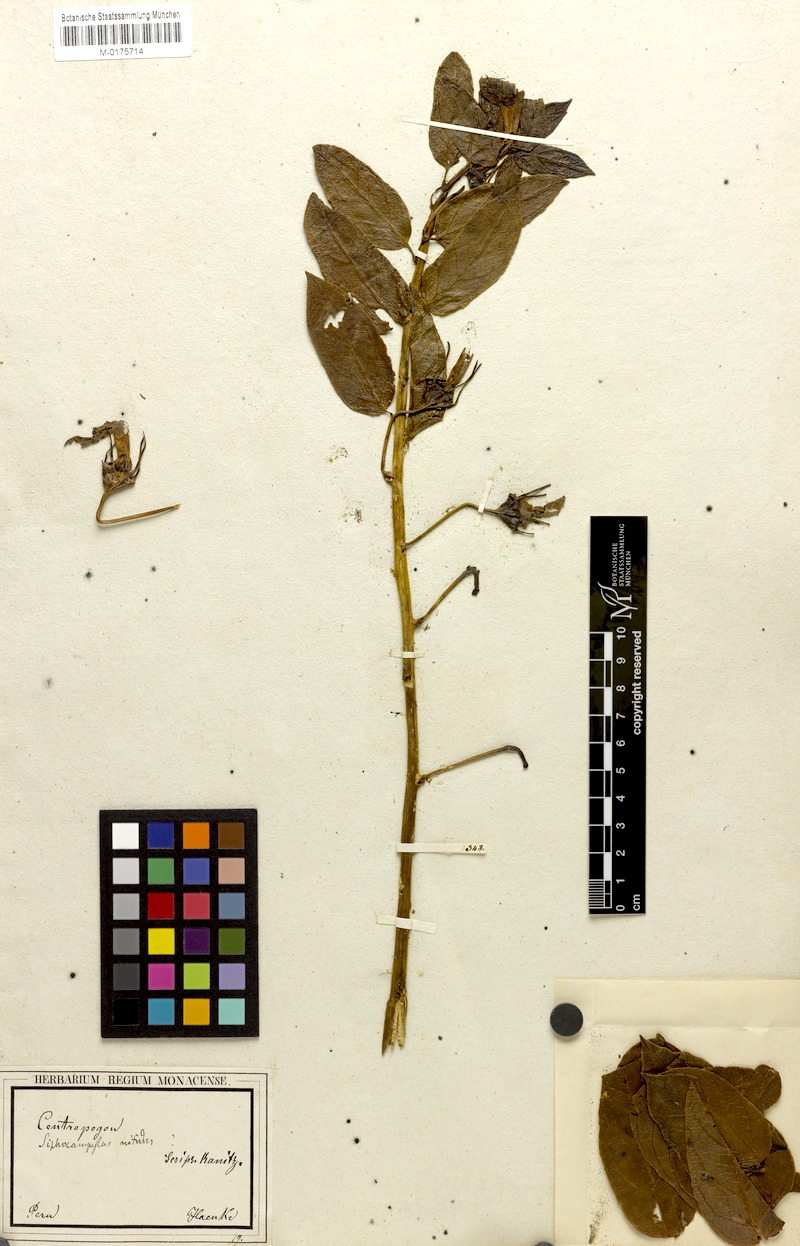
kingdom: Plantae
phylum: Tracheophyta
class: Magnoliopsida
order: Asterales
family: Campanulaceae
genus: Siphocampylus
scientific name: Siphocampylus nitidus
